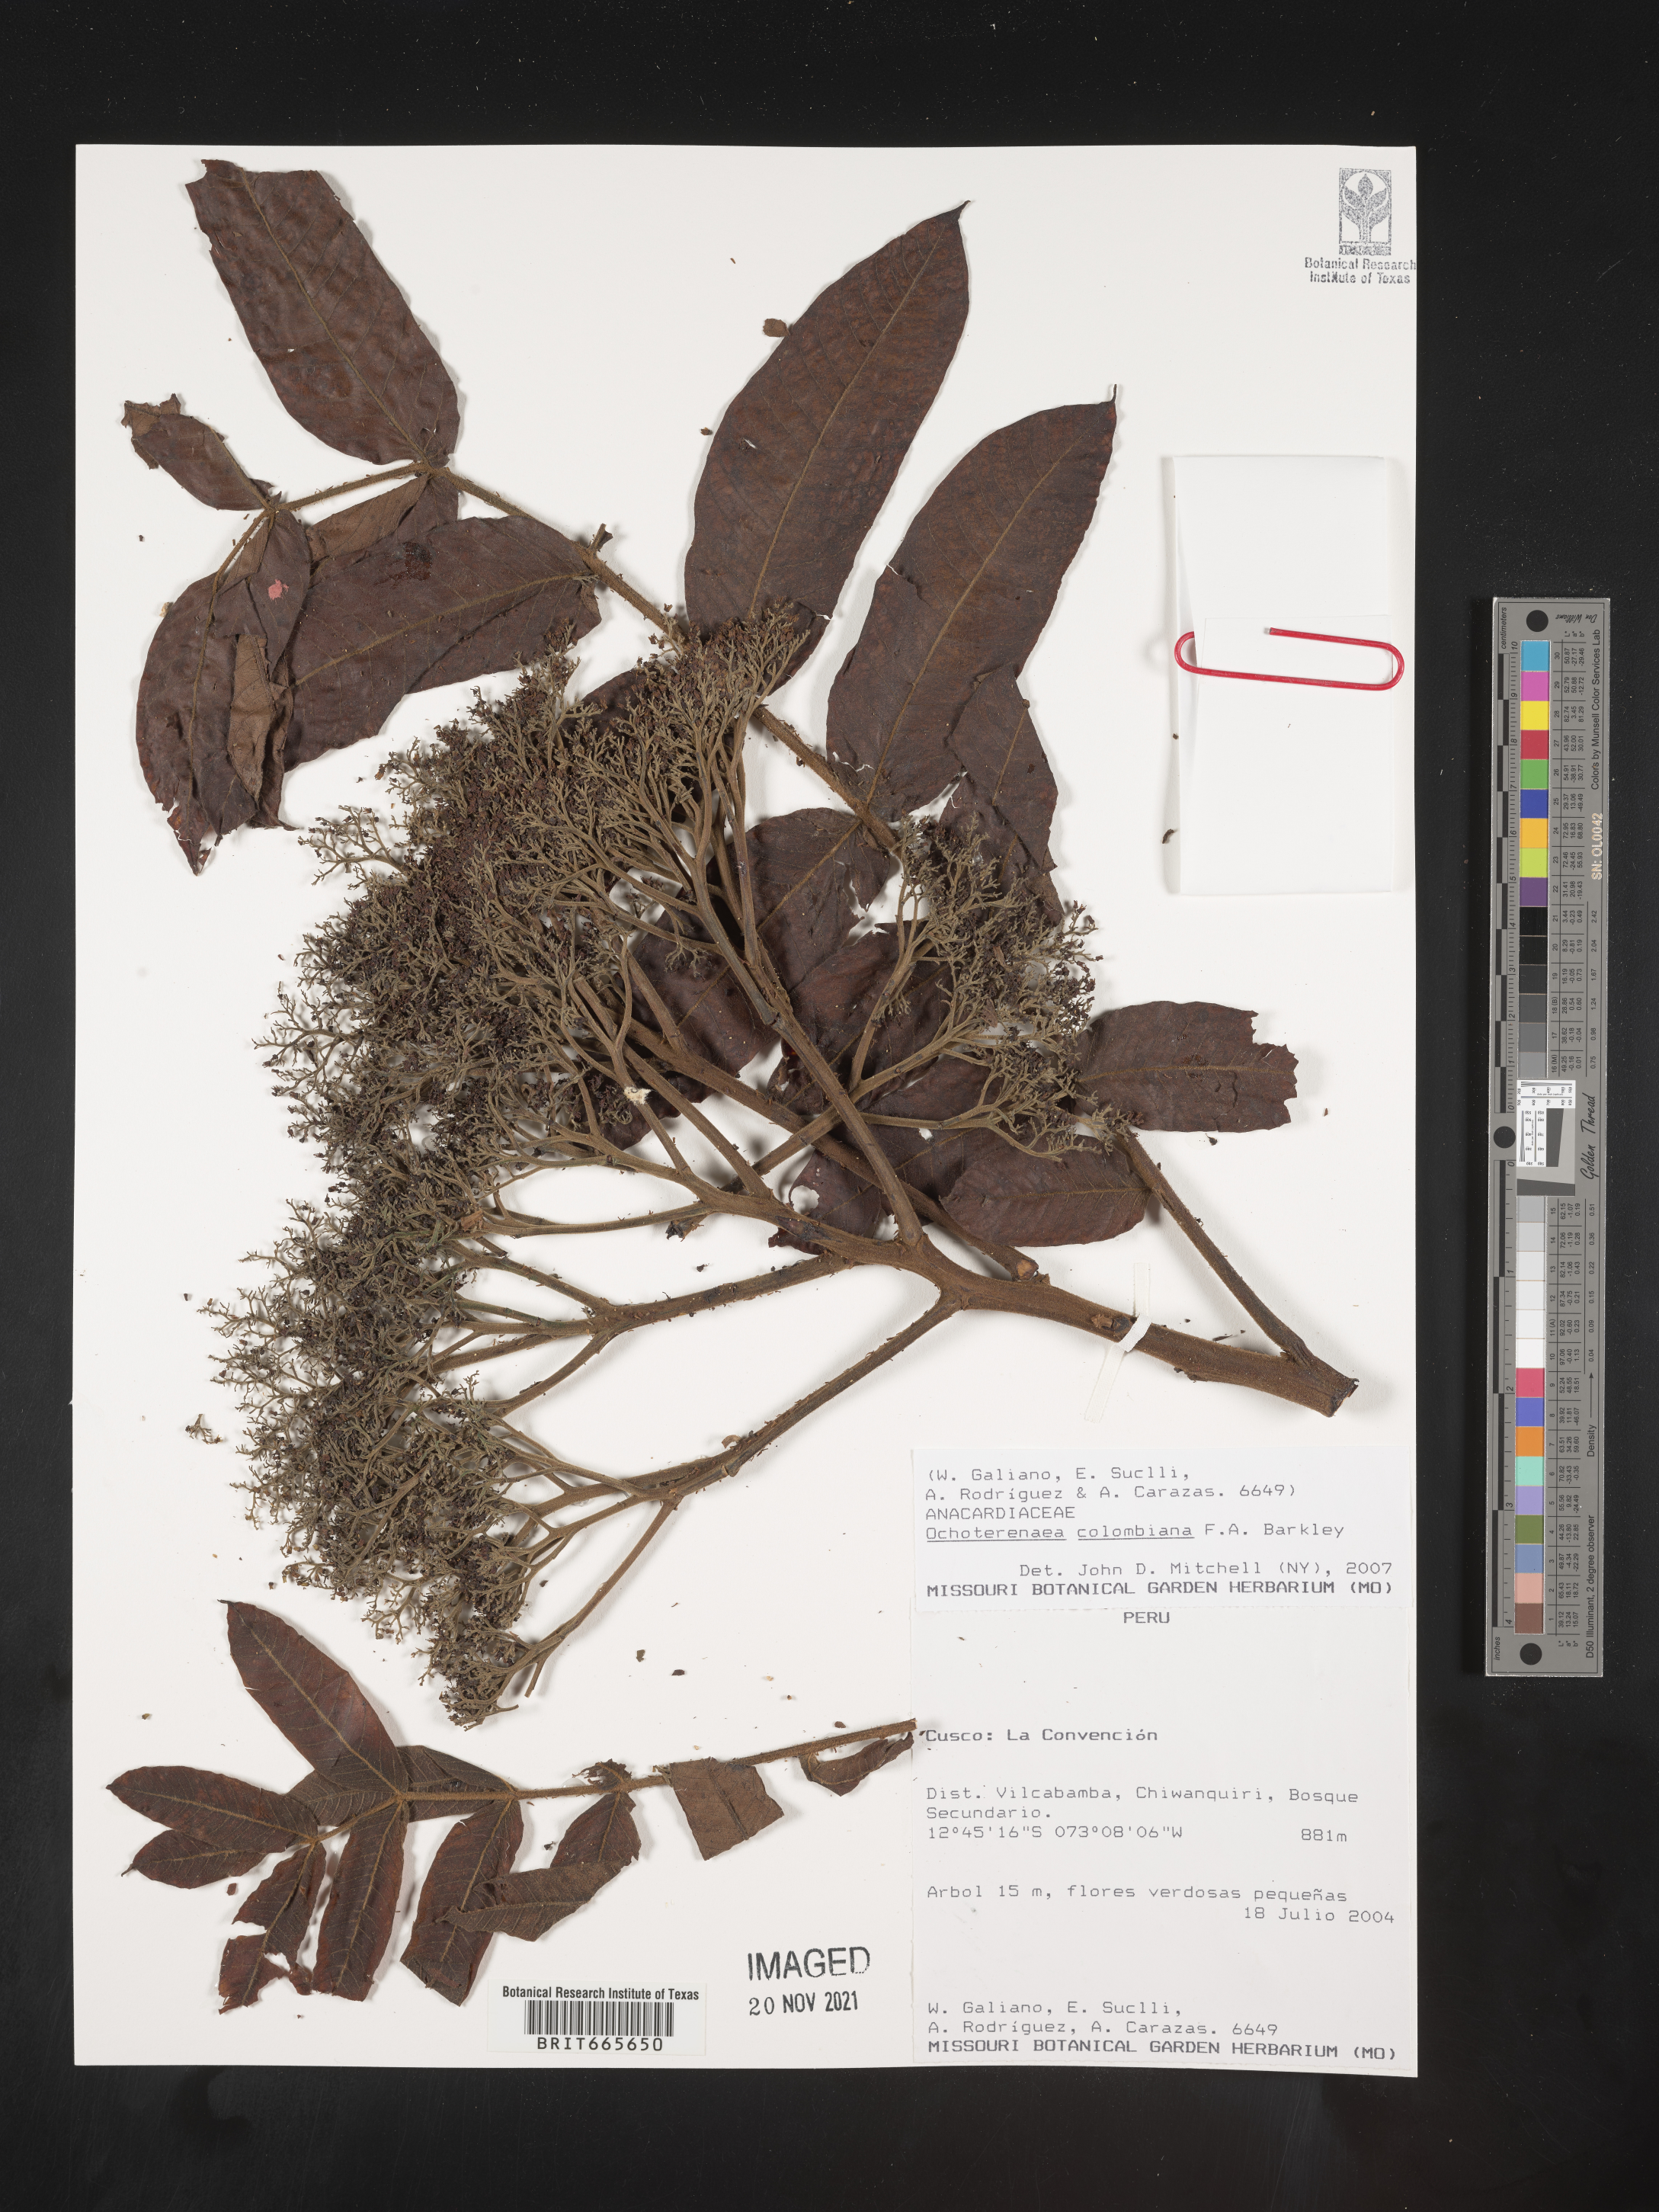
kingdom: Plantae
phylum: Tracheophyta
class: Magnoliopsida
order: Sapindales
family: Anacardiaceae
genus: Ochoterenaea
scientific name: Ochoterenaea
